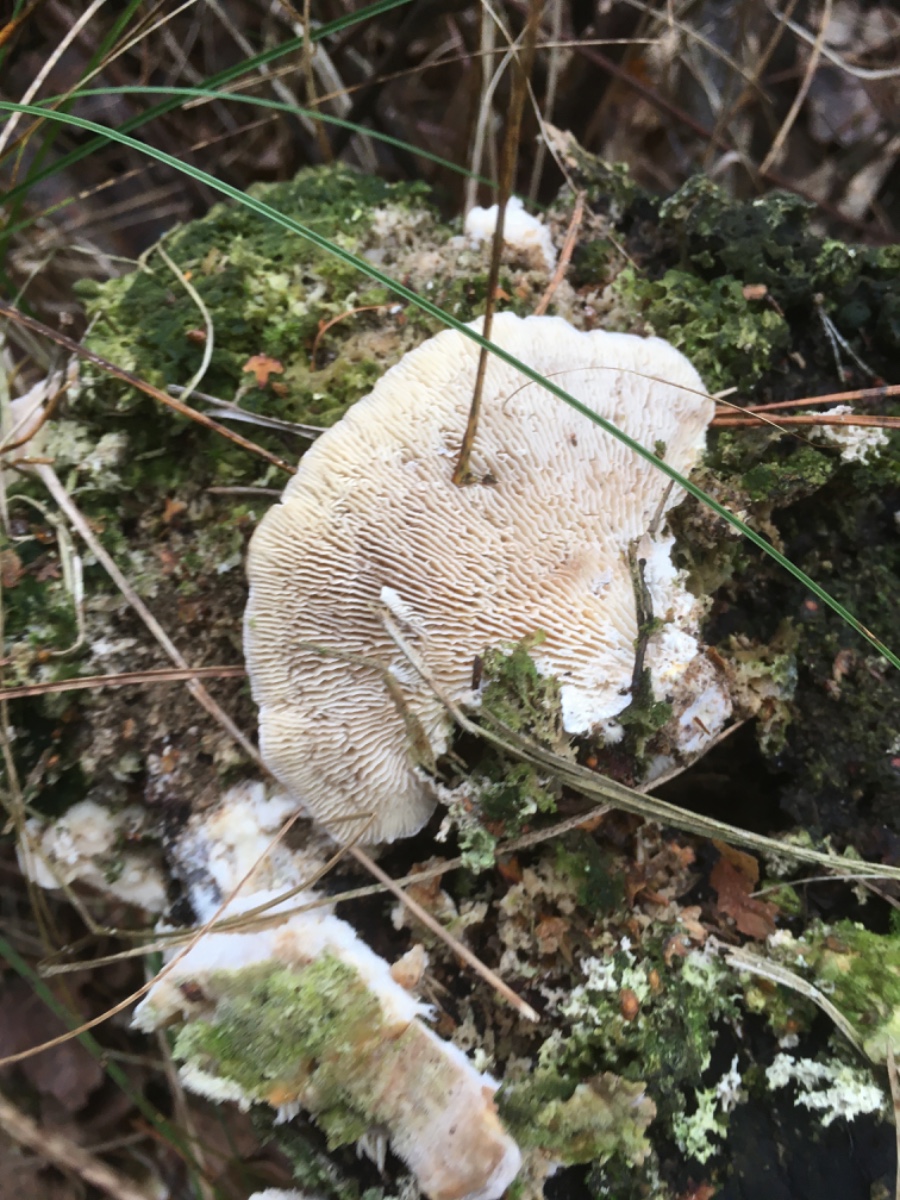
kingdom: Fungi
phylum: Basidiomycota
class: Agaricomycetes
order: Polyporales
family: Polyporaceae
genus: Lenzites
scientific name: Lenzites betulinus
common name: birke-læderporesvamp
